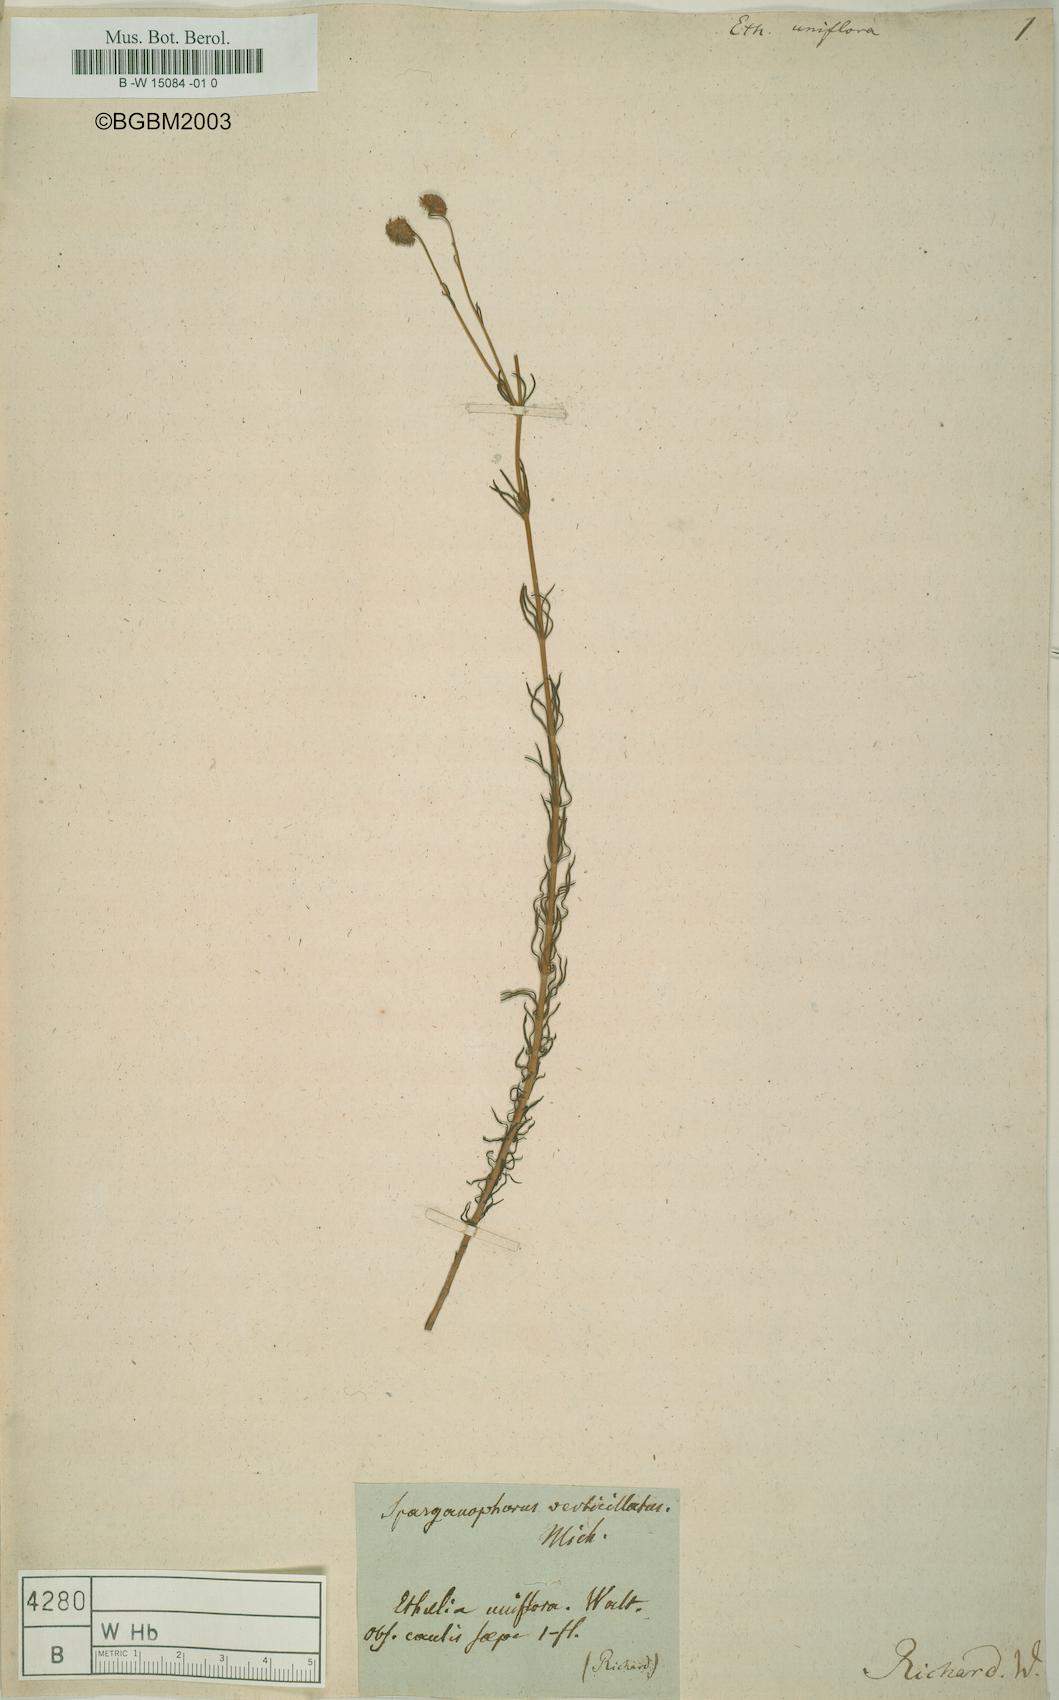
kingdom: Plantae
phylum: Tracheophyta
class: Magnoliopsida
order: Asterales
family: Asteraceae
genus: Sclerolepis
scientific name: Sclerolepis uniflora
